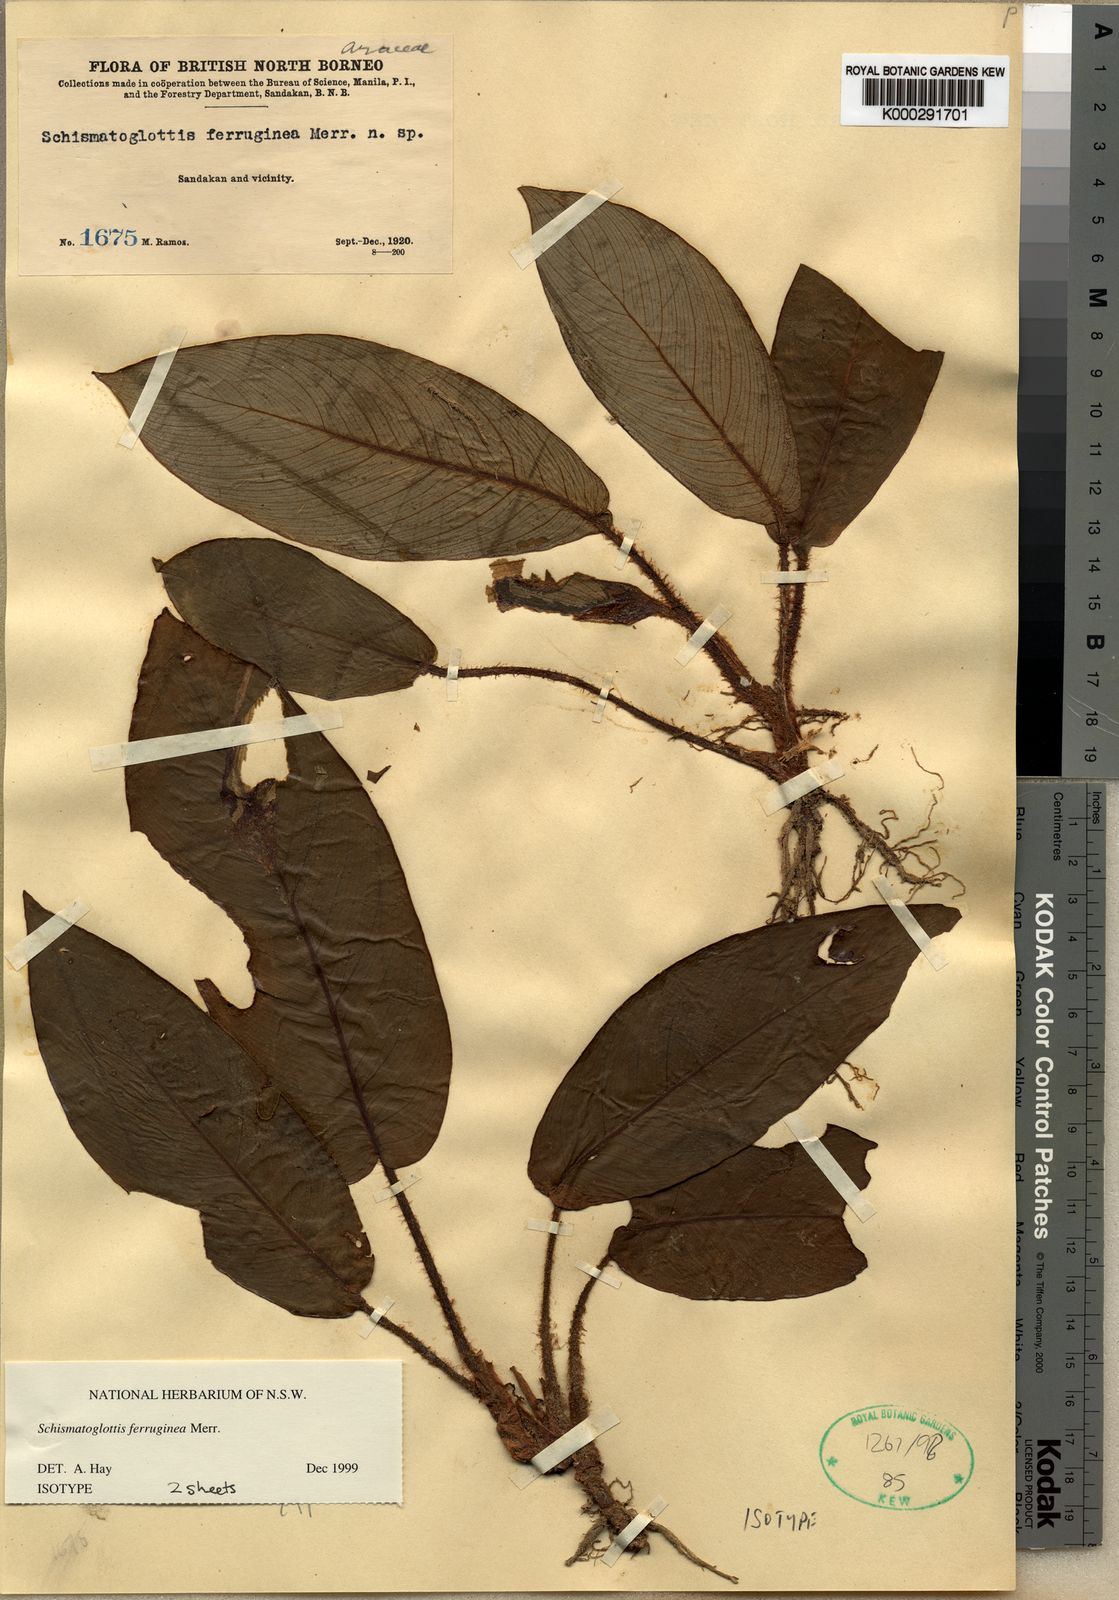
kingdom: Plantae
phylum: Tracheophyta
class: Liliopsida
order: Alismatales
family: Araceae
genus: Schismatoglottis
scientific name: Schismatoglottis ferruginea
